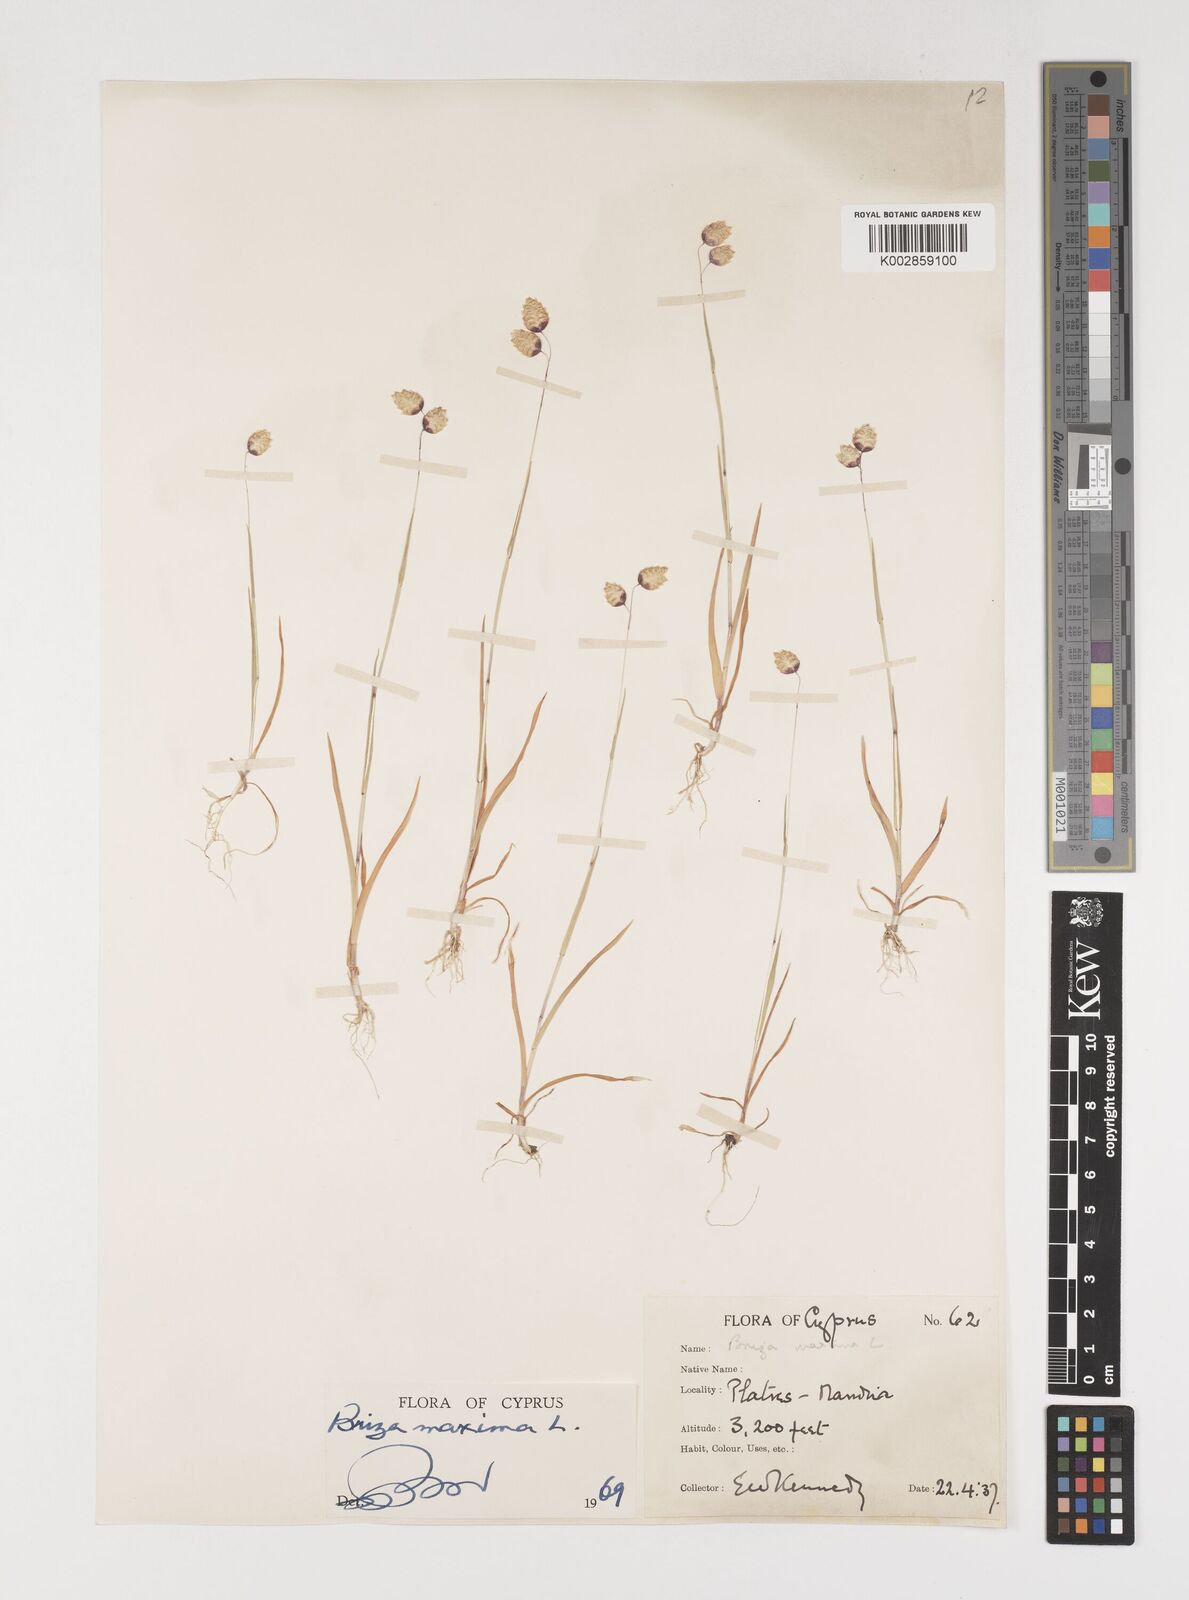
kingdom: Plantae
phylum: Tracheophyta
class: Liliopsida
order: Poales
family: Poaceae
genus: Briza
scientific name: Briza maxima
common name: Big quakinggrass
